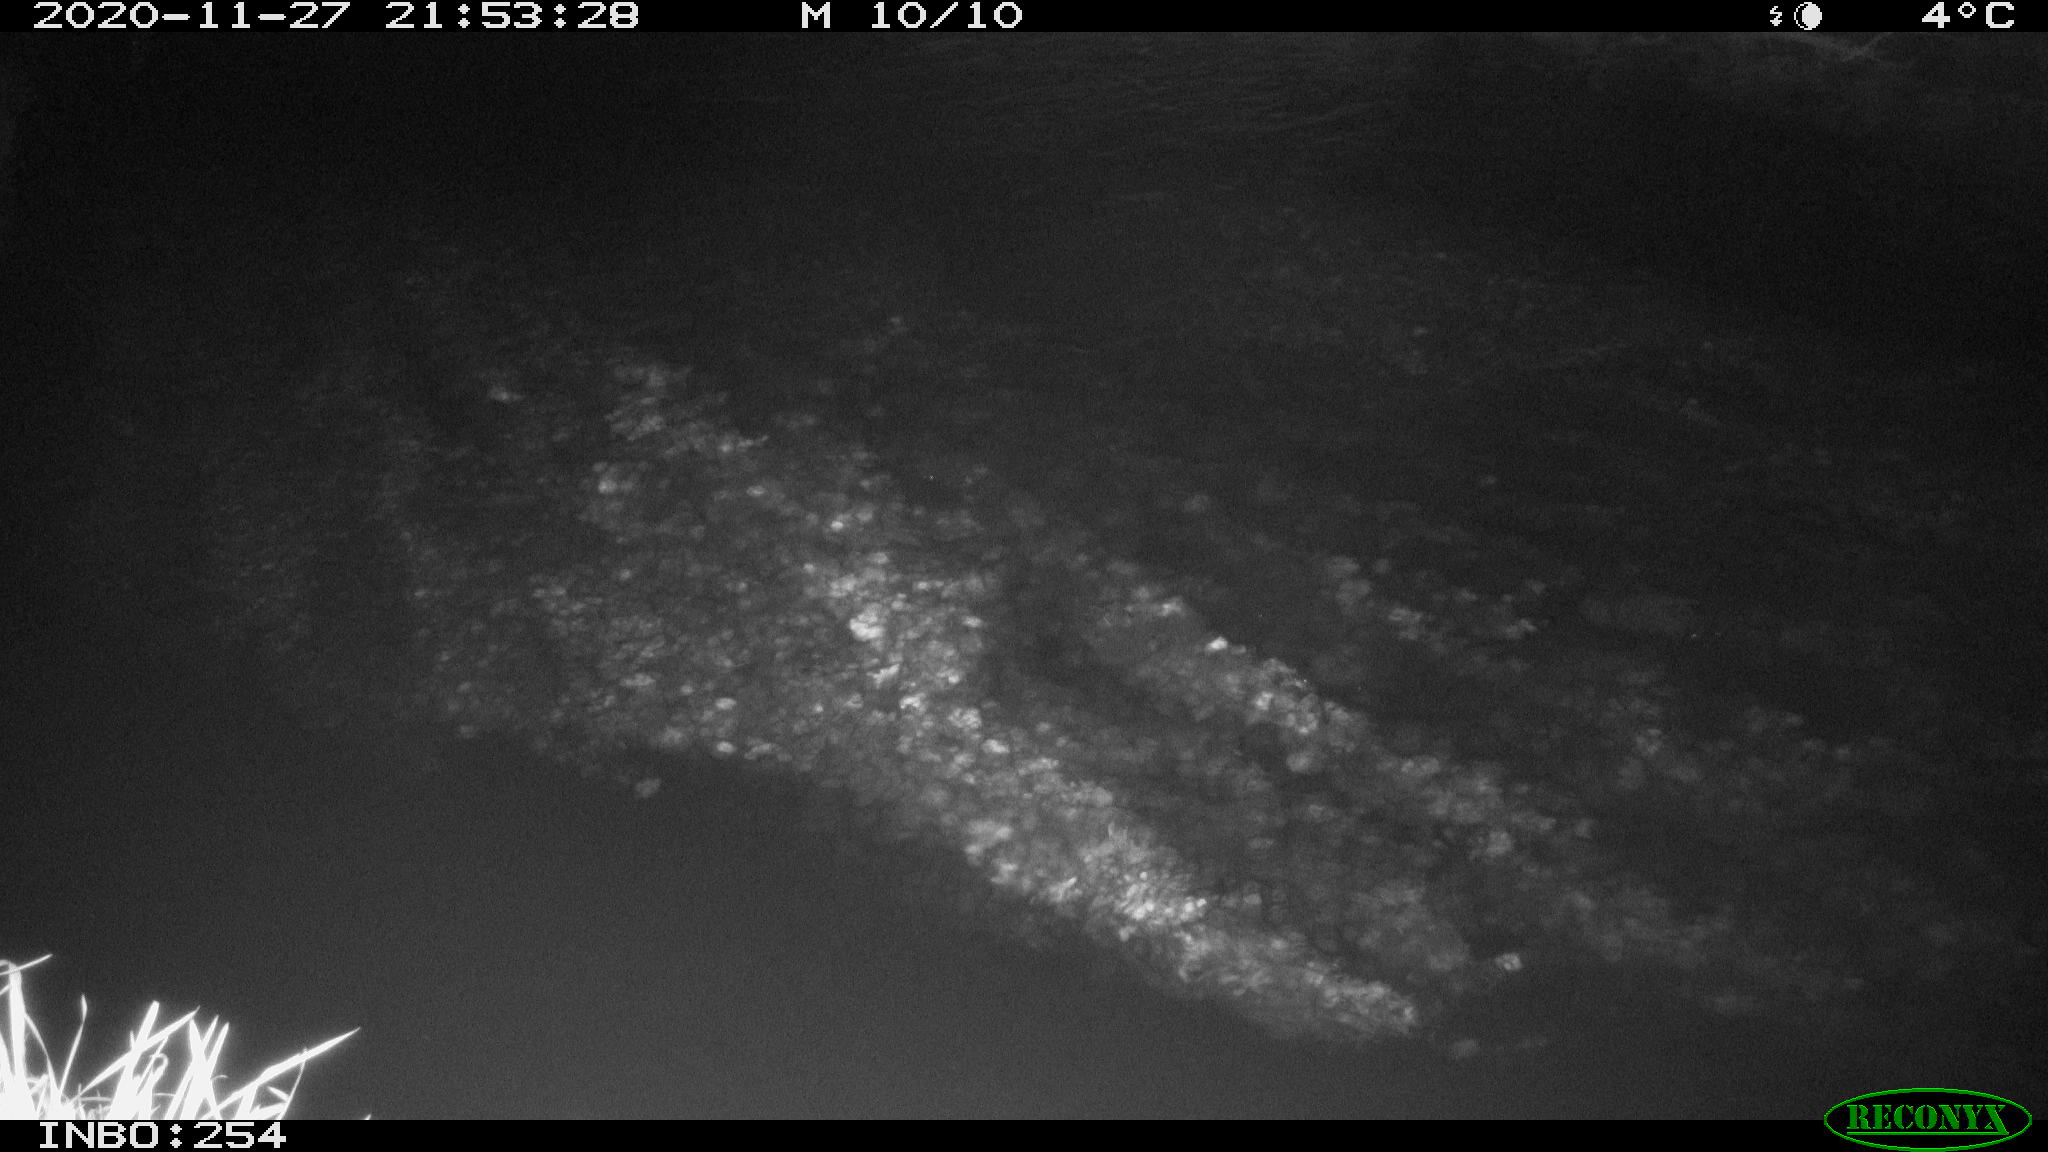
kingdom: Animalia
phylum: Chordata
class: Aves
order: Anseriformes
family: Anatidae
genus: Anas
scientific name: Anas platyrhynchos
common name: Mallard
